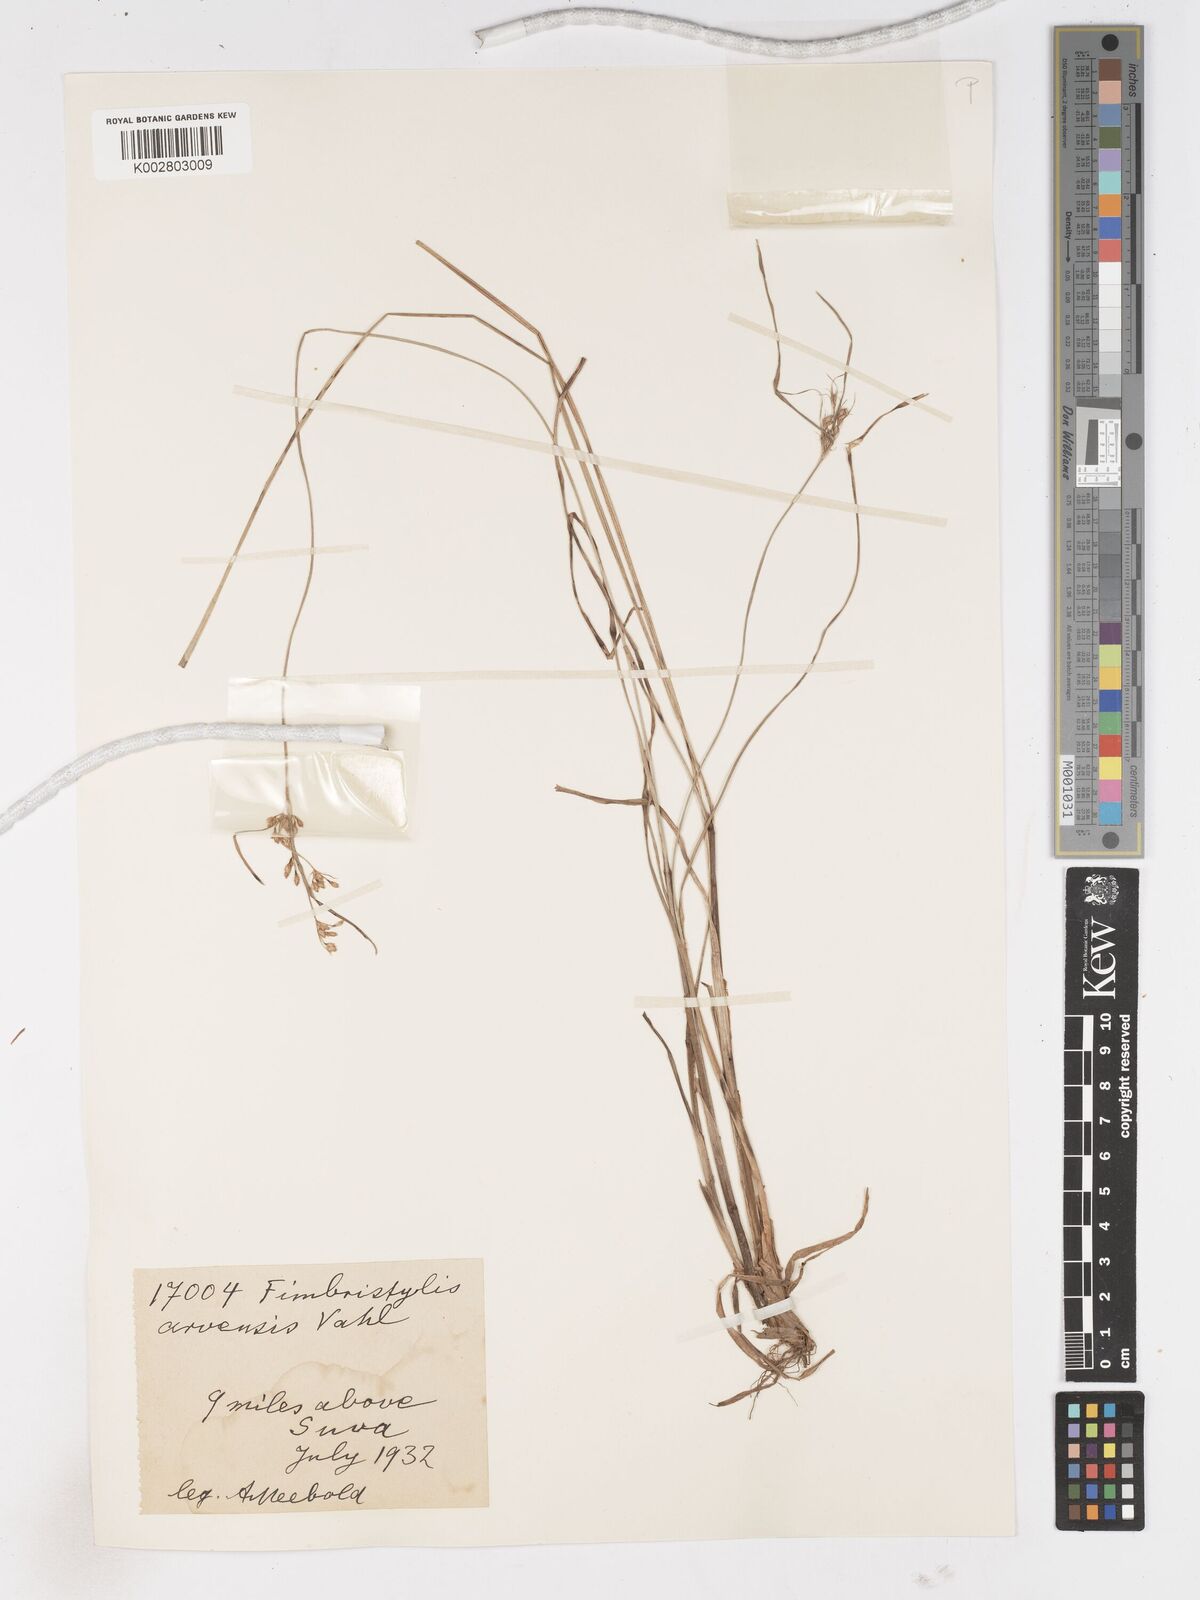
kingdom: Plantae
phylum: Tracheophyta
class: Liliopsida
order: Poales
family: Cyperaceae
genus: Fimbristylis
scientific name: Fimbristylis dichotoma
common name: Forked fimbry
